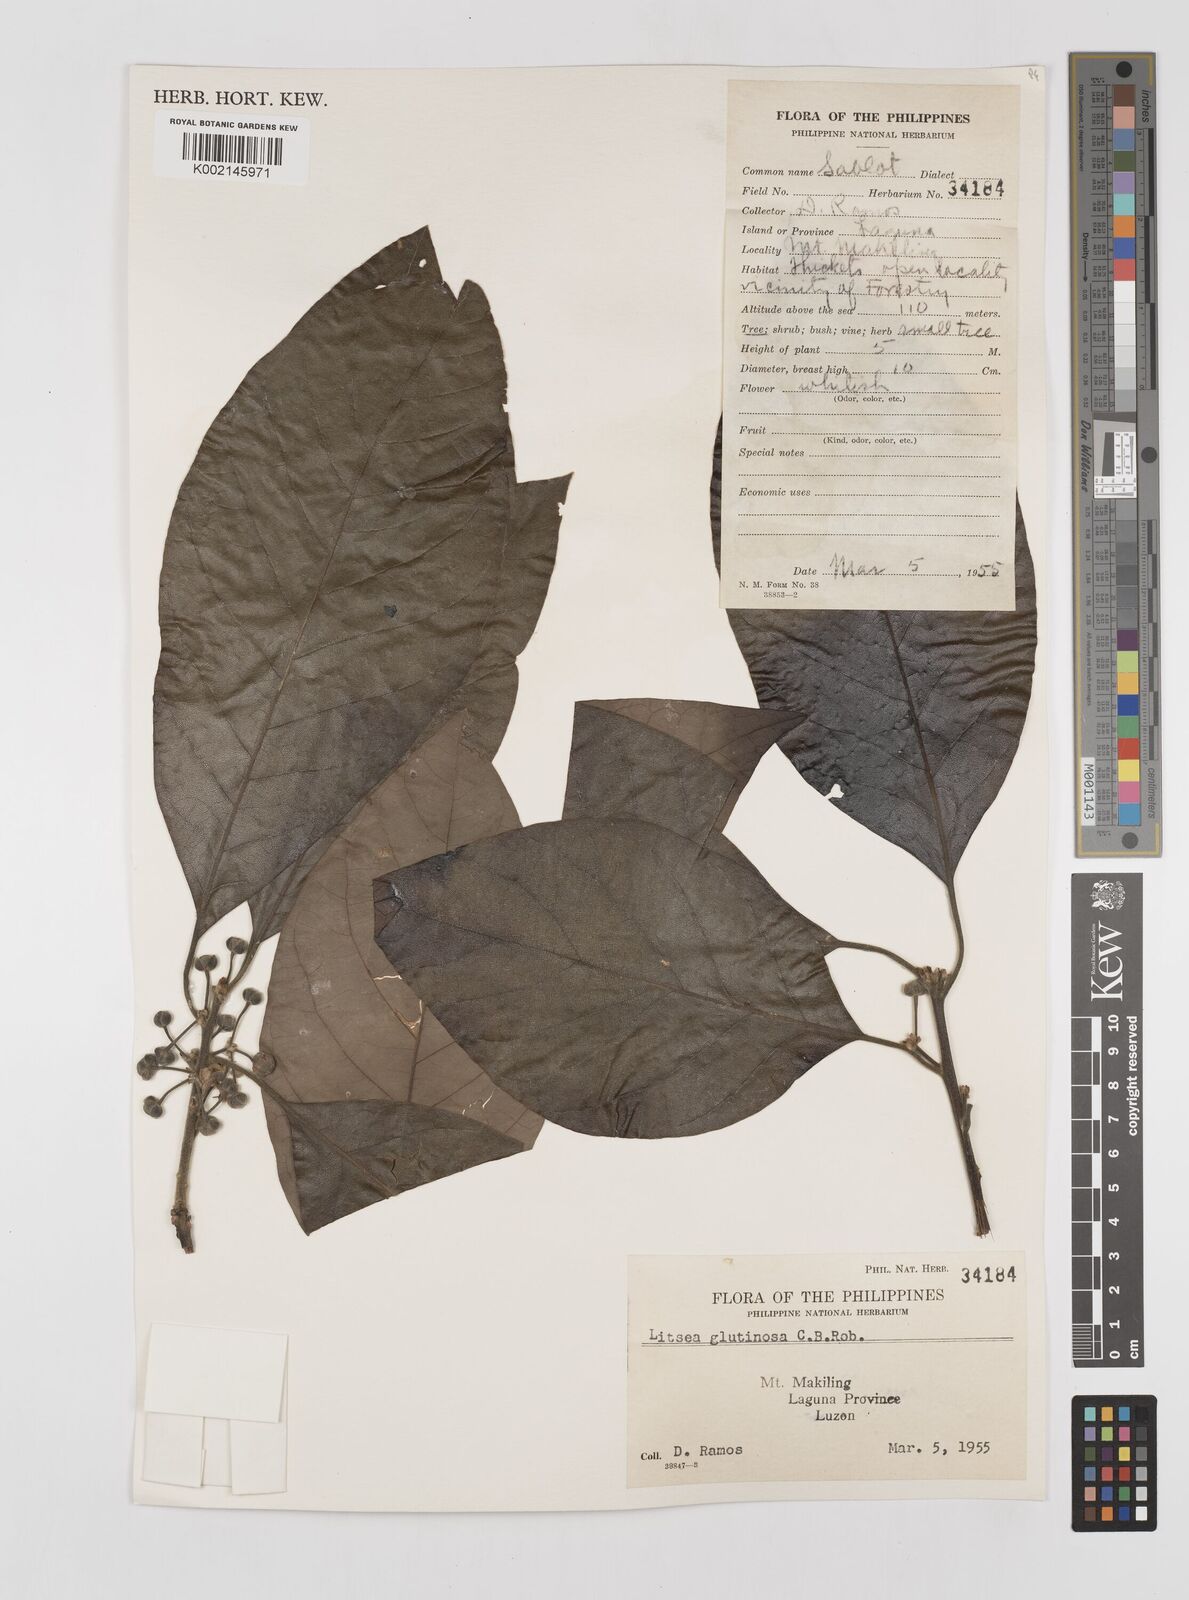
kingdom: Plantae
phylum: Tracheophyta
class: Magnoliopsida
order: Laurales
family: Lauraceae
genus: Litsea
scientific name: Litsea glutinosa
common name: Indian-laurel
